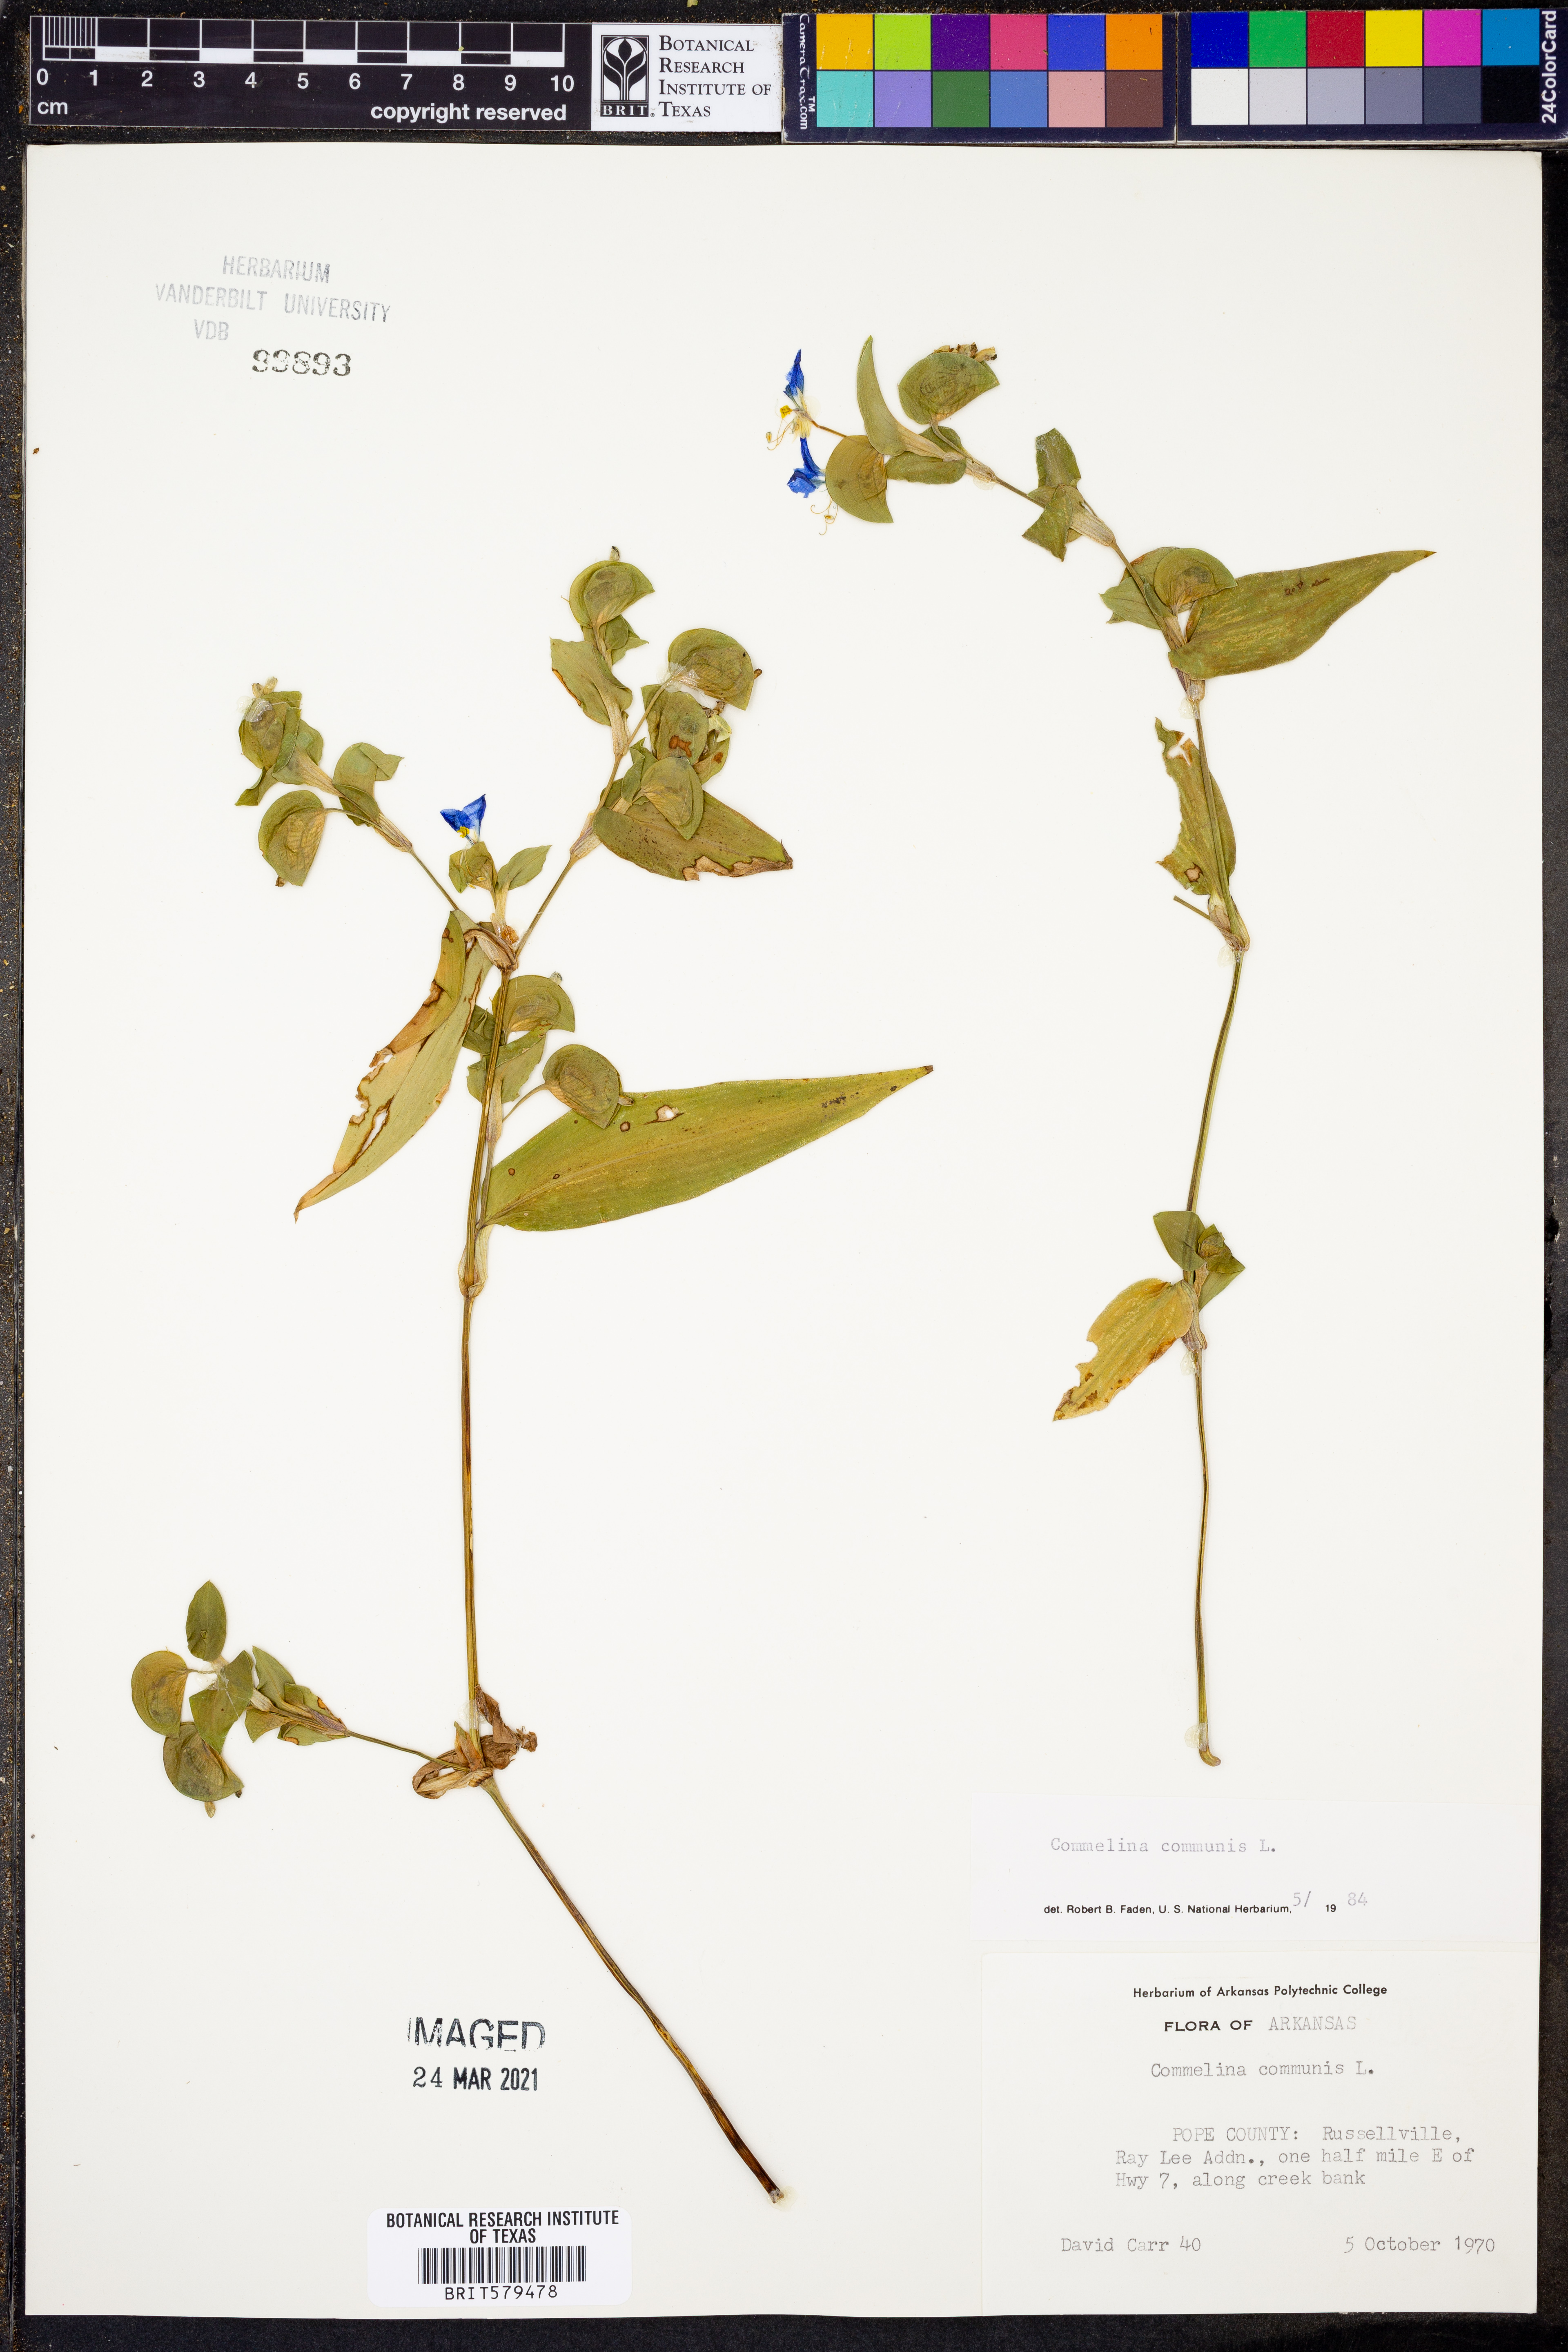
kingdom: Plantae
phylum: Tracheophyta
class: Liliopsida
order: Commelinales
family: Commelinaceae
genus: Commelina
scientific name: Commelina communis
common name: Asiatic dayflower
